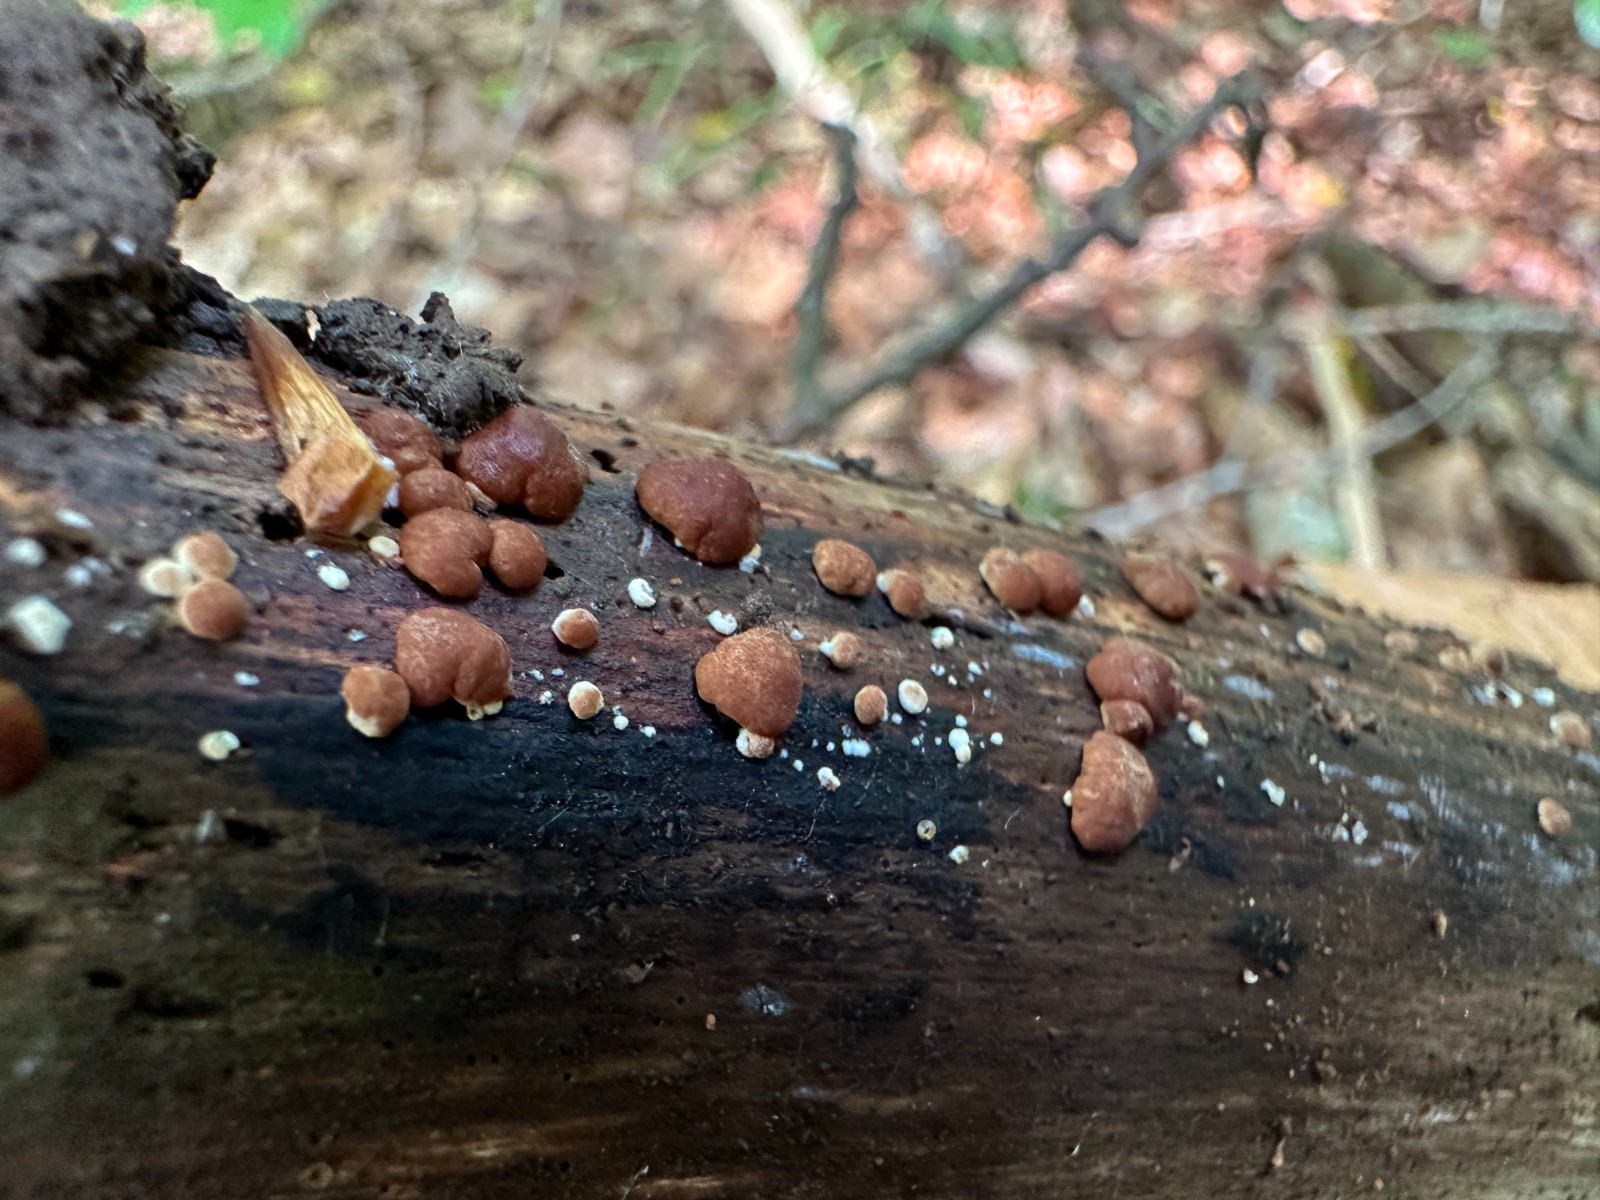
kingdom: Fungi
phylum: Ascomycota
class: Sordariomycetes
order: Hypocreales
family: Hypocreaceae
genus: Trichoderma
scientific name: Trichoderma europaeum
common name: rosabrun kødkerne
